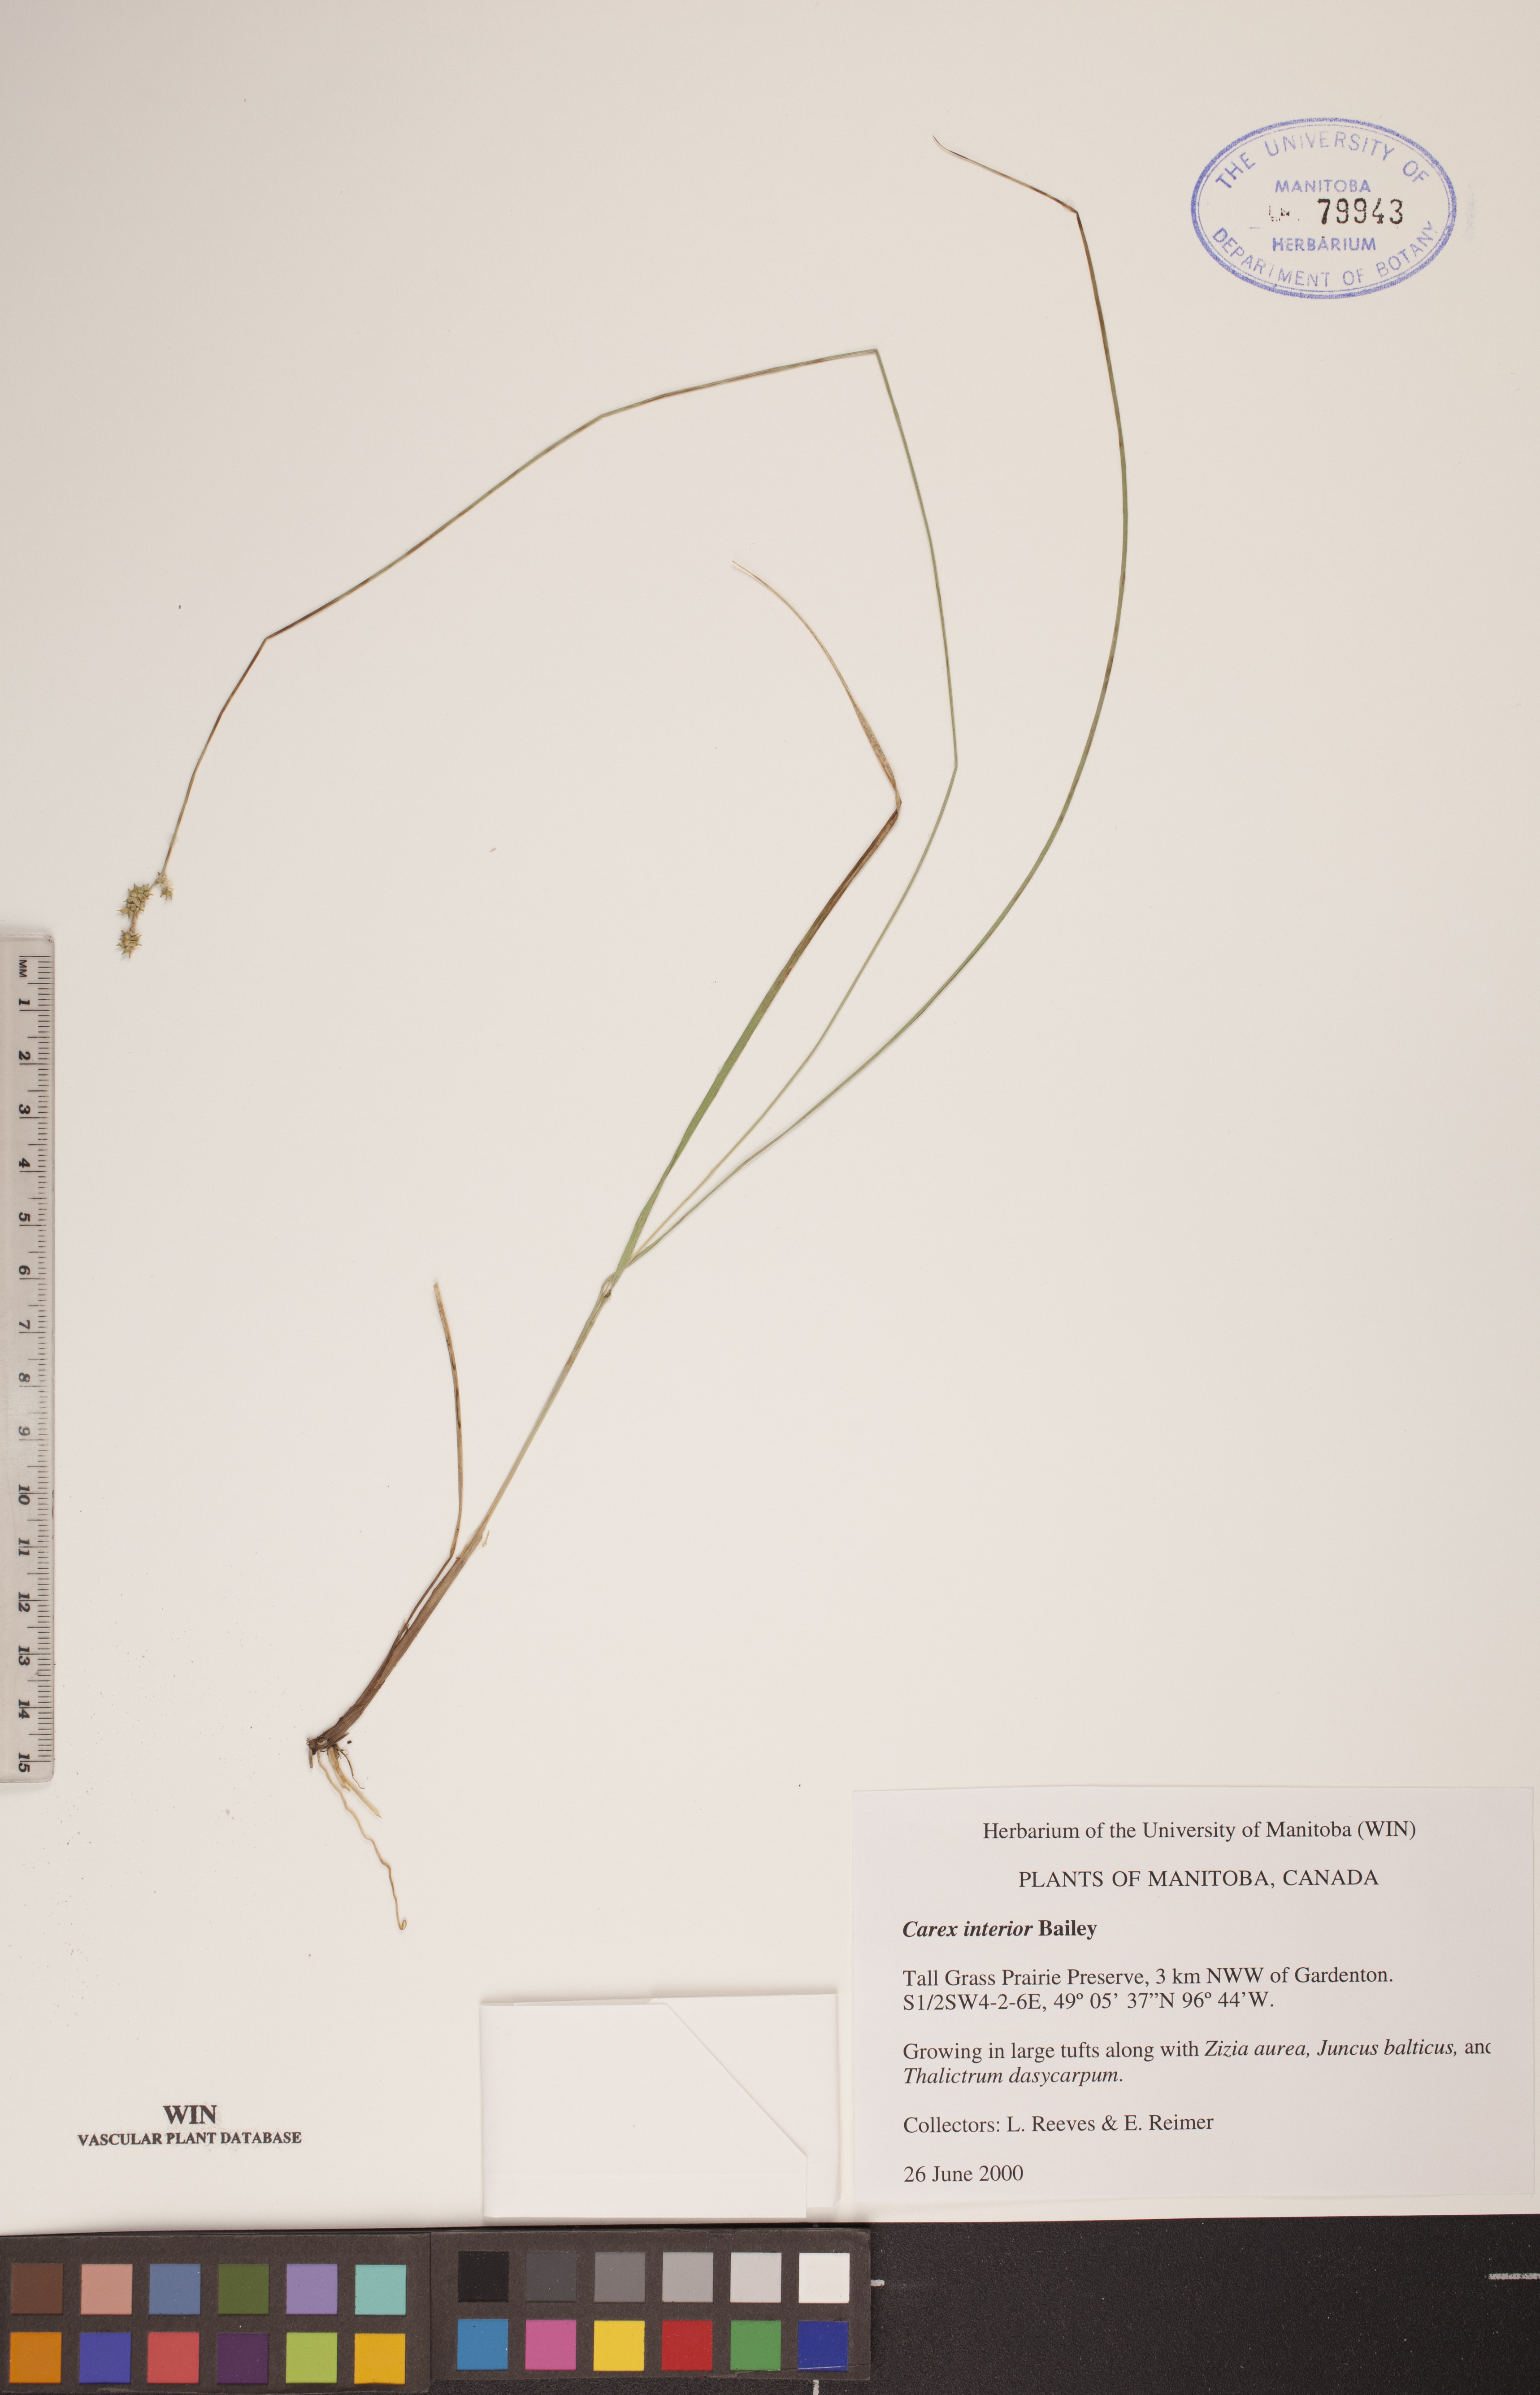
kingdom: Plantae
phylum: Tracheophyta
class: Liliopsida
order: Poales
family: Cyperaceae
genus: Carex
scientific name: Carex interior
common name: Inland sedge
